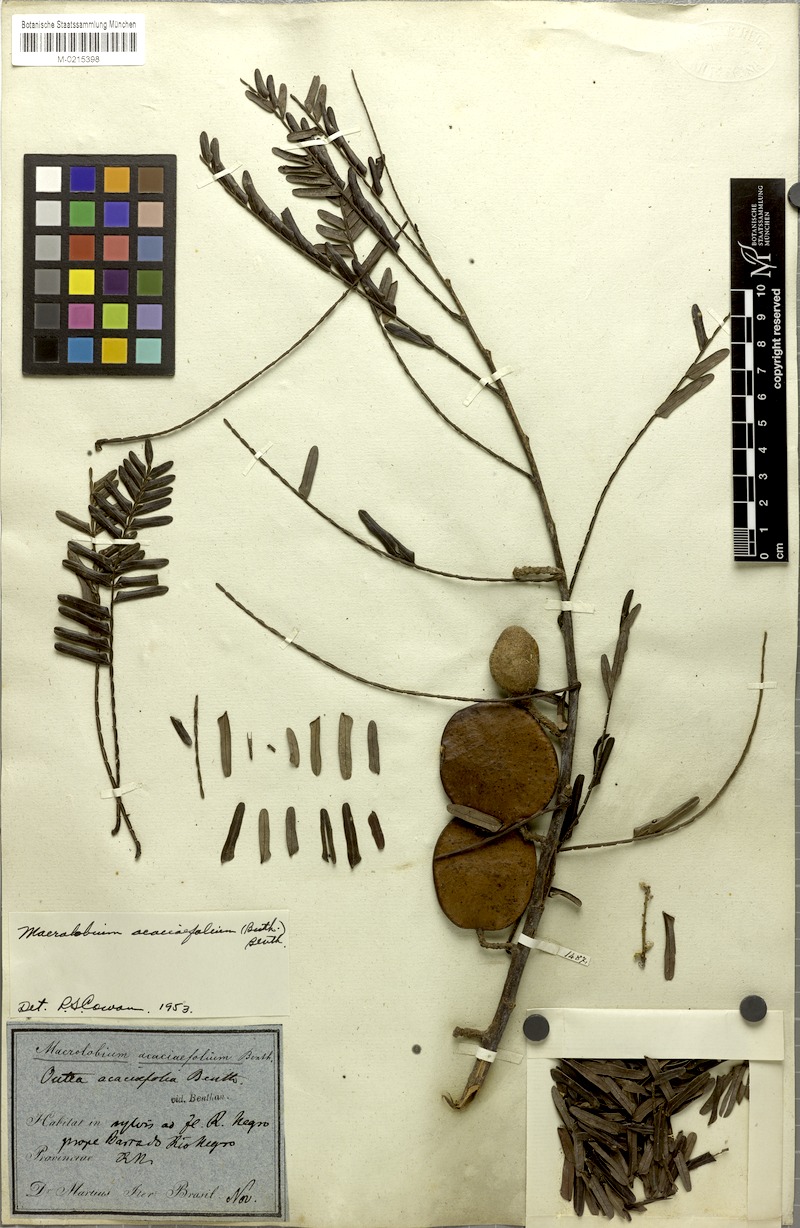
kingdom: Plantae
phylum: Tracheophyta
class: Magnoliopsida
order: Fabales
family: Fabaceae
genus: Macrolobium
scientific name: Macrolobium acaciifolium
